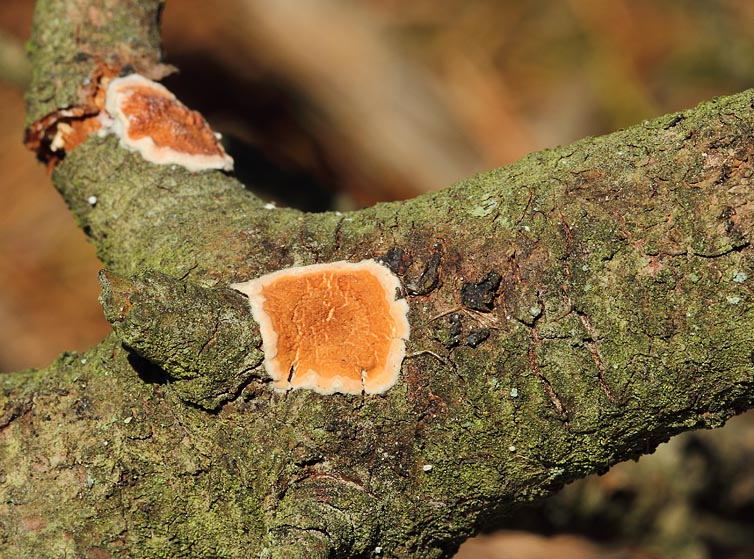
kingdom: Fungi
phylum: Basidiomycota
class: Agaricomycetes
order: Polyporales
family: Irpicaceae
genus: Meruliopsis
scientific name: Meruliopsis taxicola
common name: purpurbrun foldporesvamp
